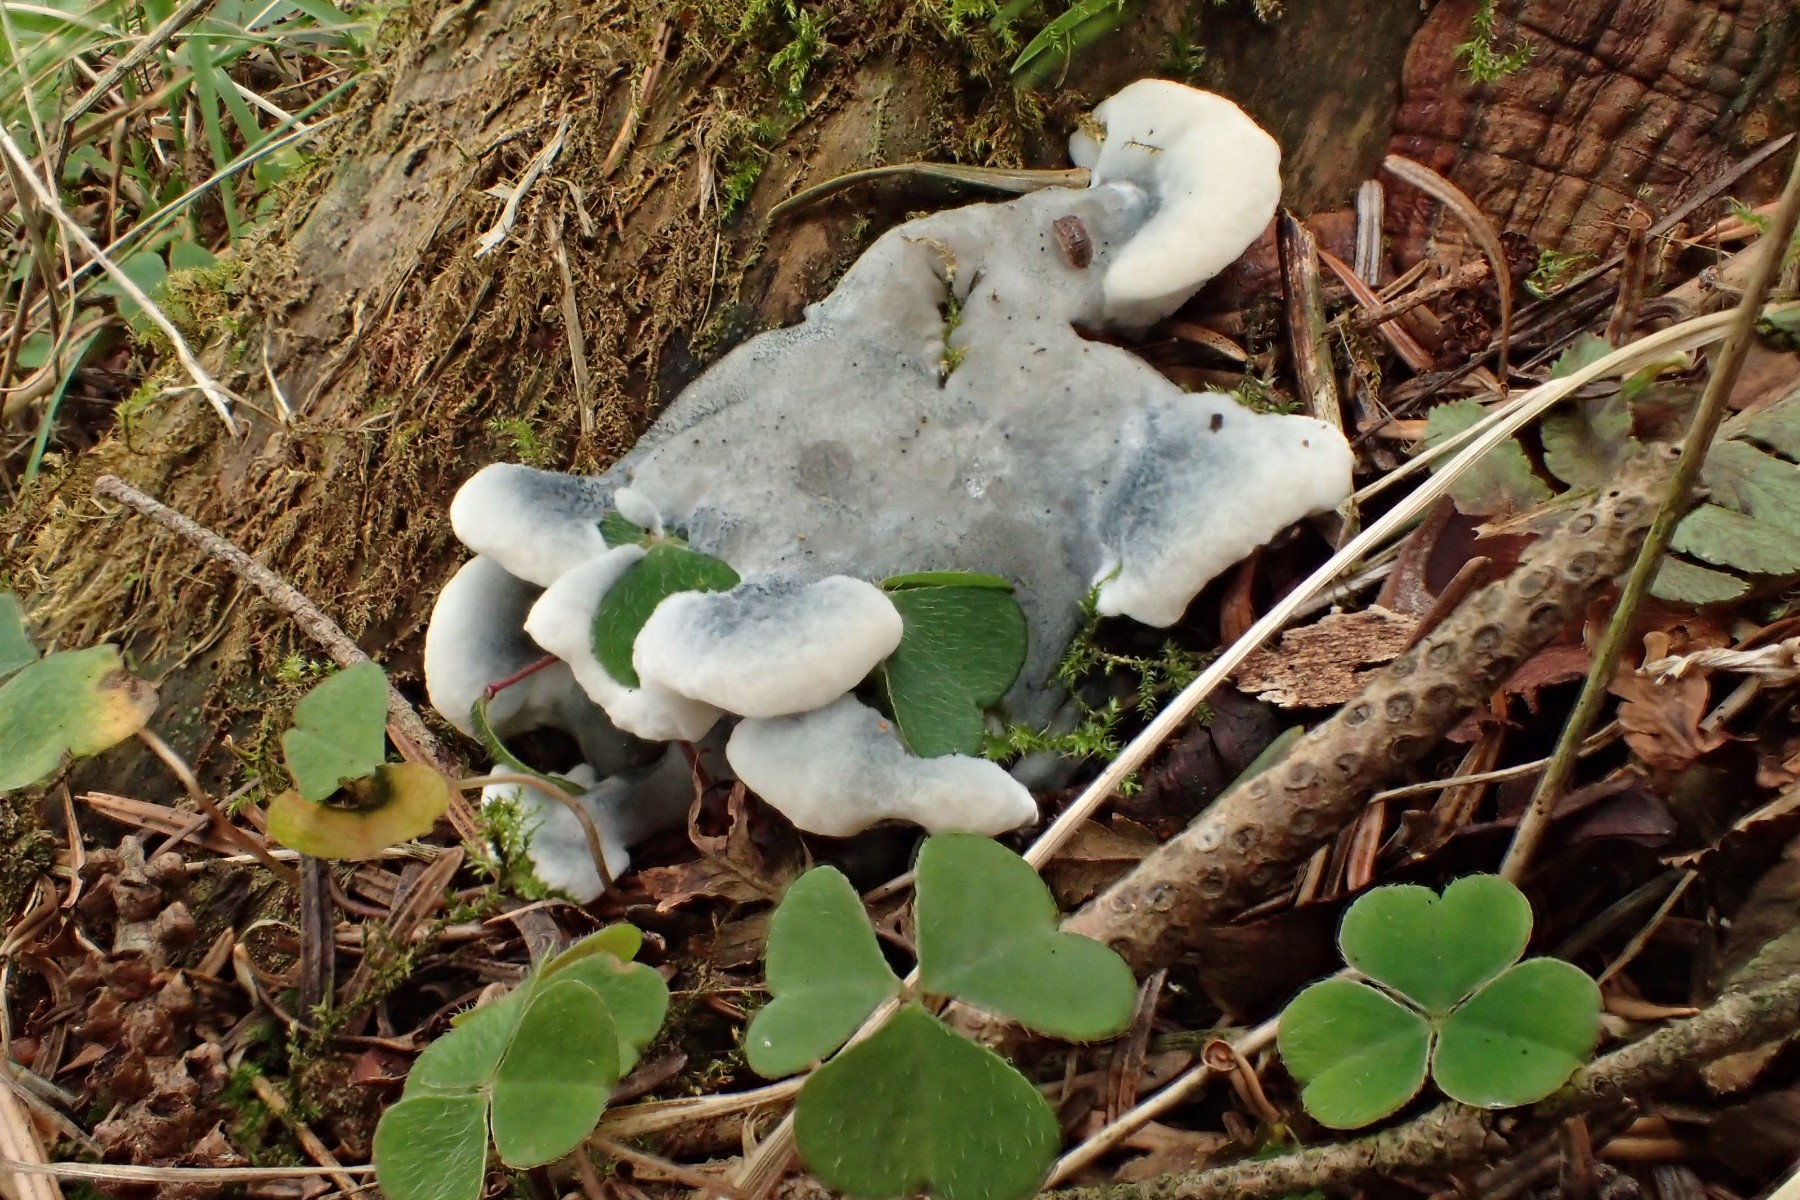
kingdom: Fungi
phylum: Basidiomycota
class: Agaricomycetes
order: Polyporales
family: Polyporaceae
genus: Cyanosporus
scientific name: Cyanosporus caesius
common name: blålig kødporesvamp
